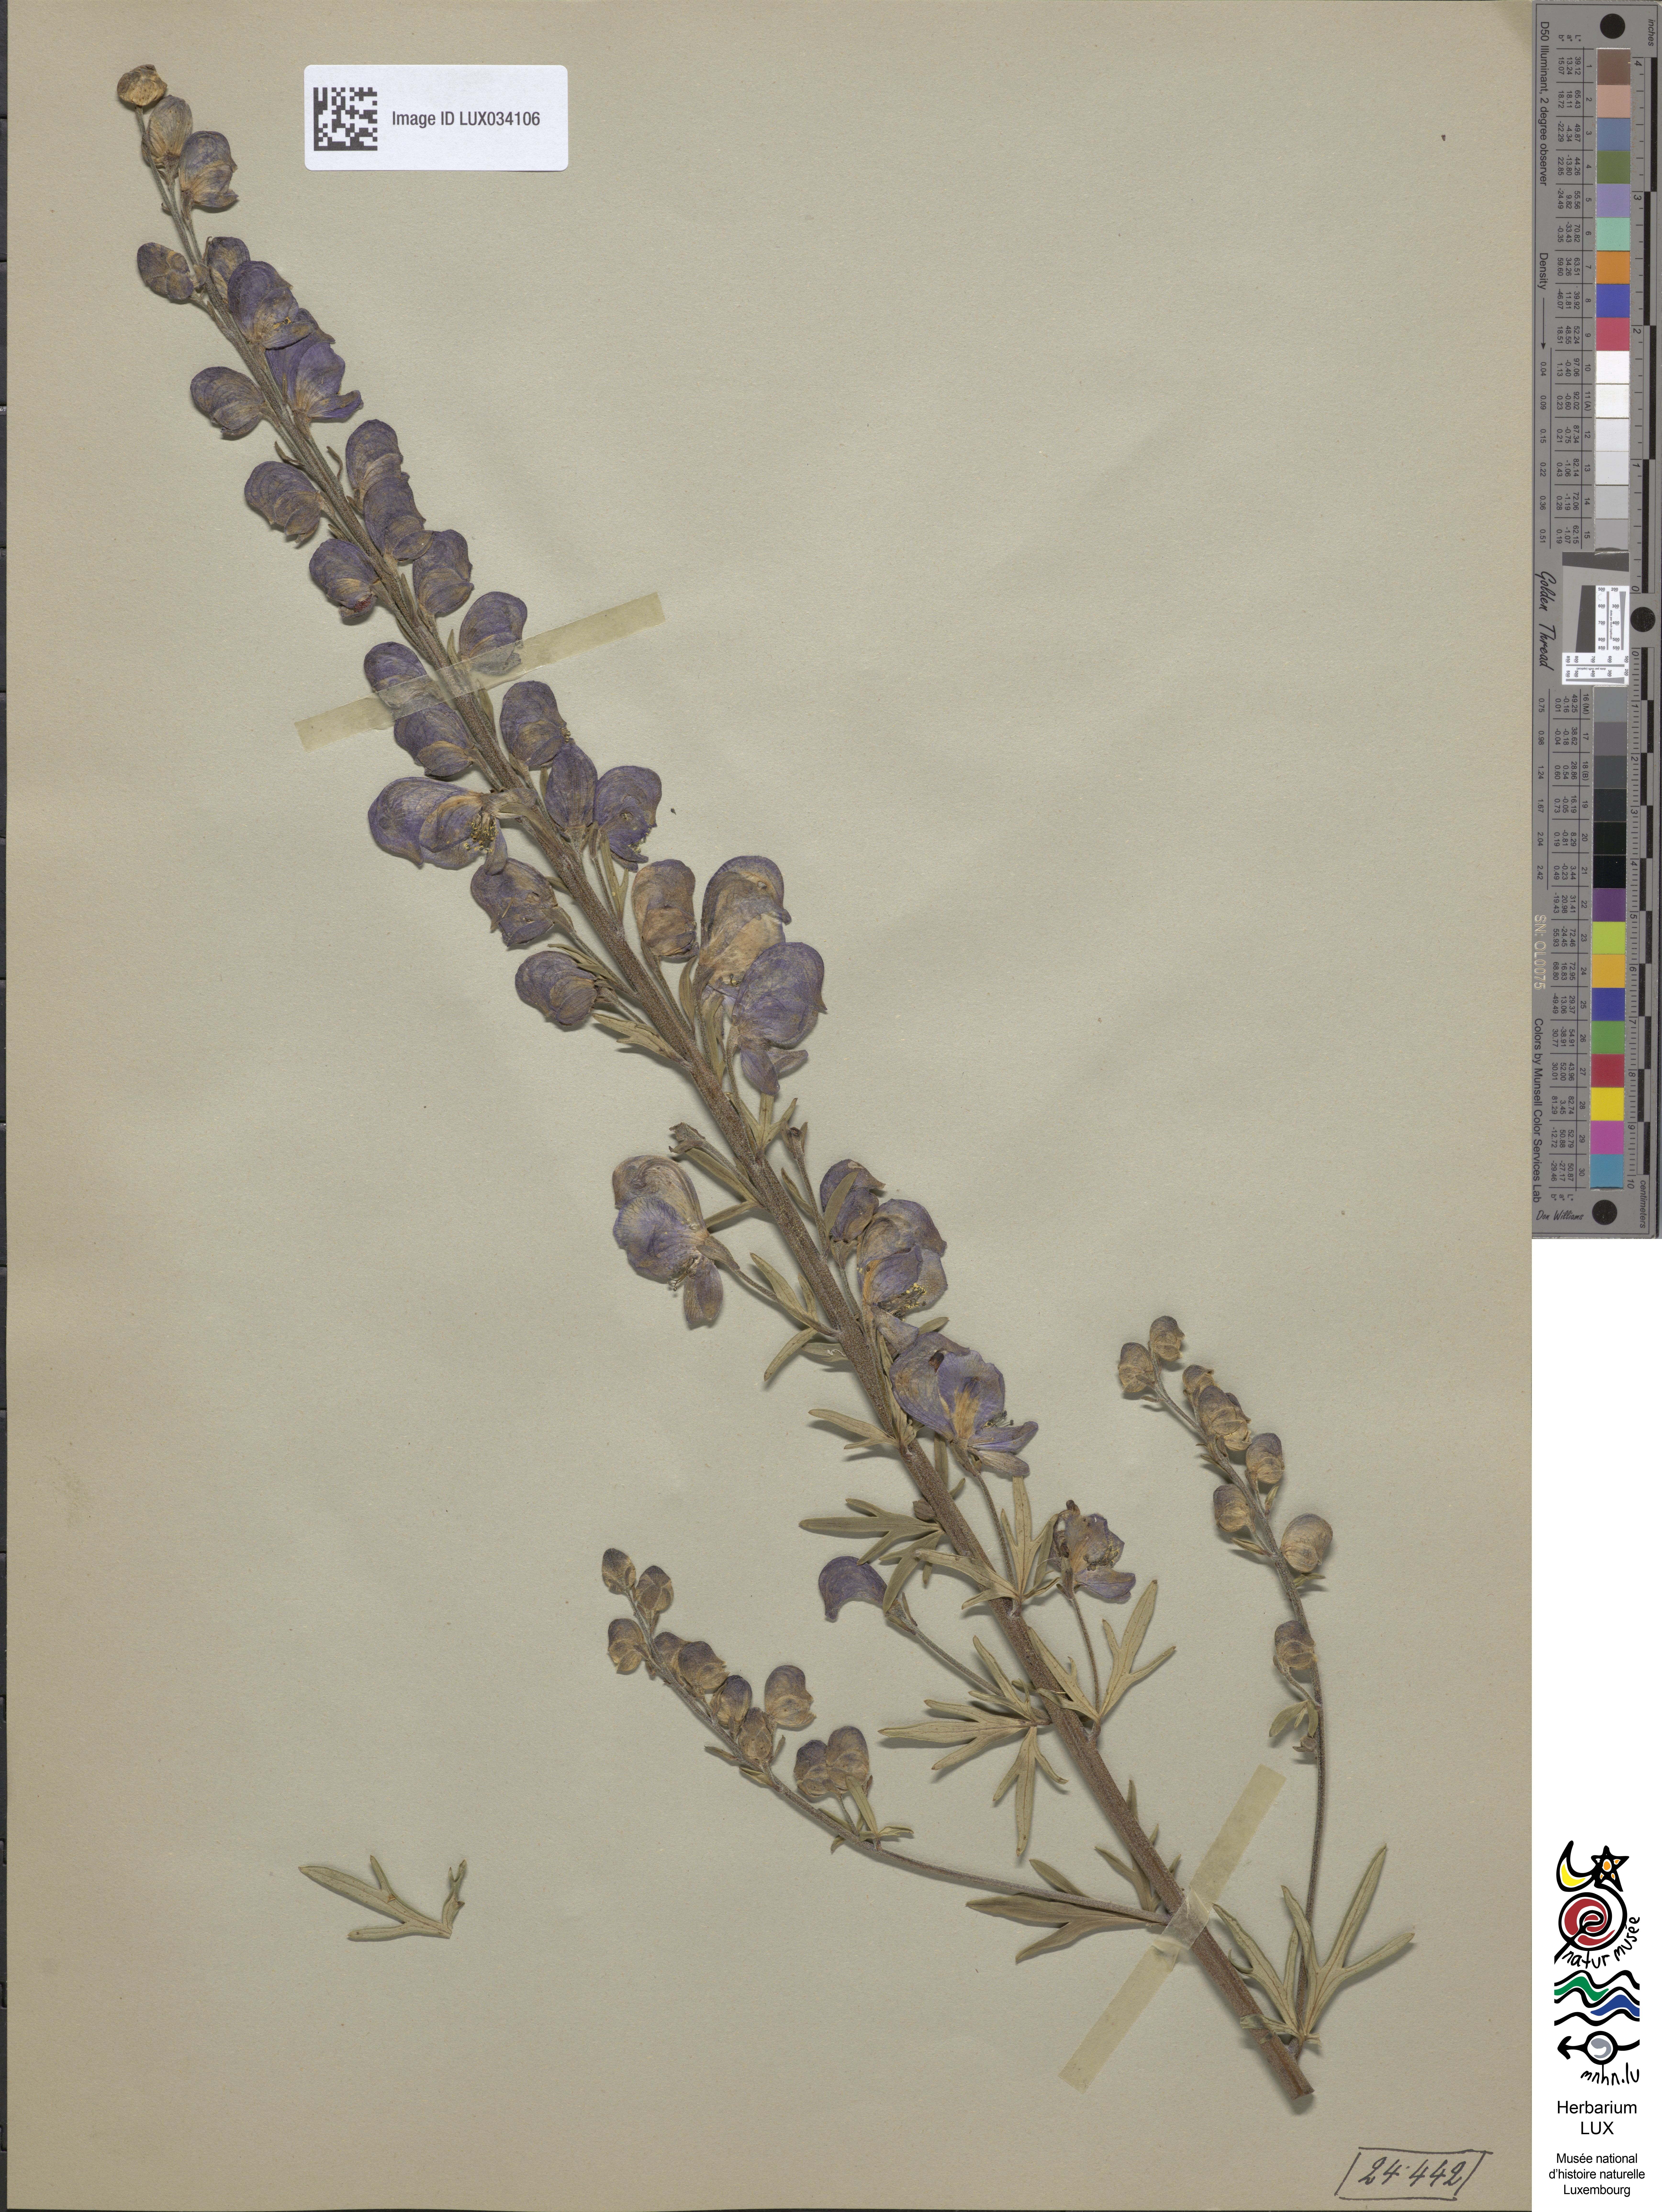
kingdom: Plantae
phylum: Tracheophyta
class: Magnoliopsida
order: Ranunculales
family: Ranunculaceae
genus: Aconitum
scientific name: Aconitum napellus
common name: Garden monkshood
